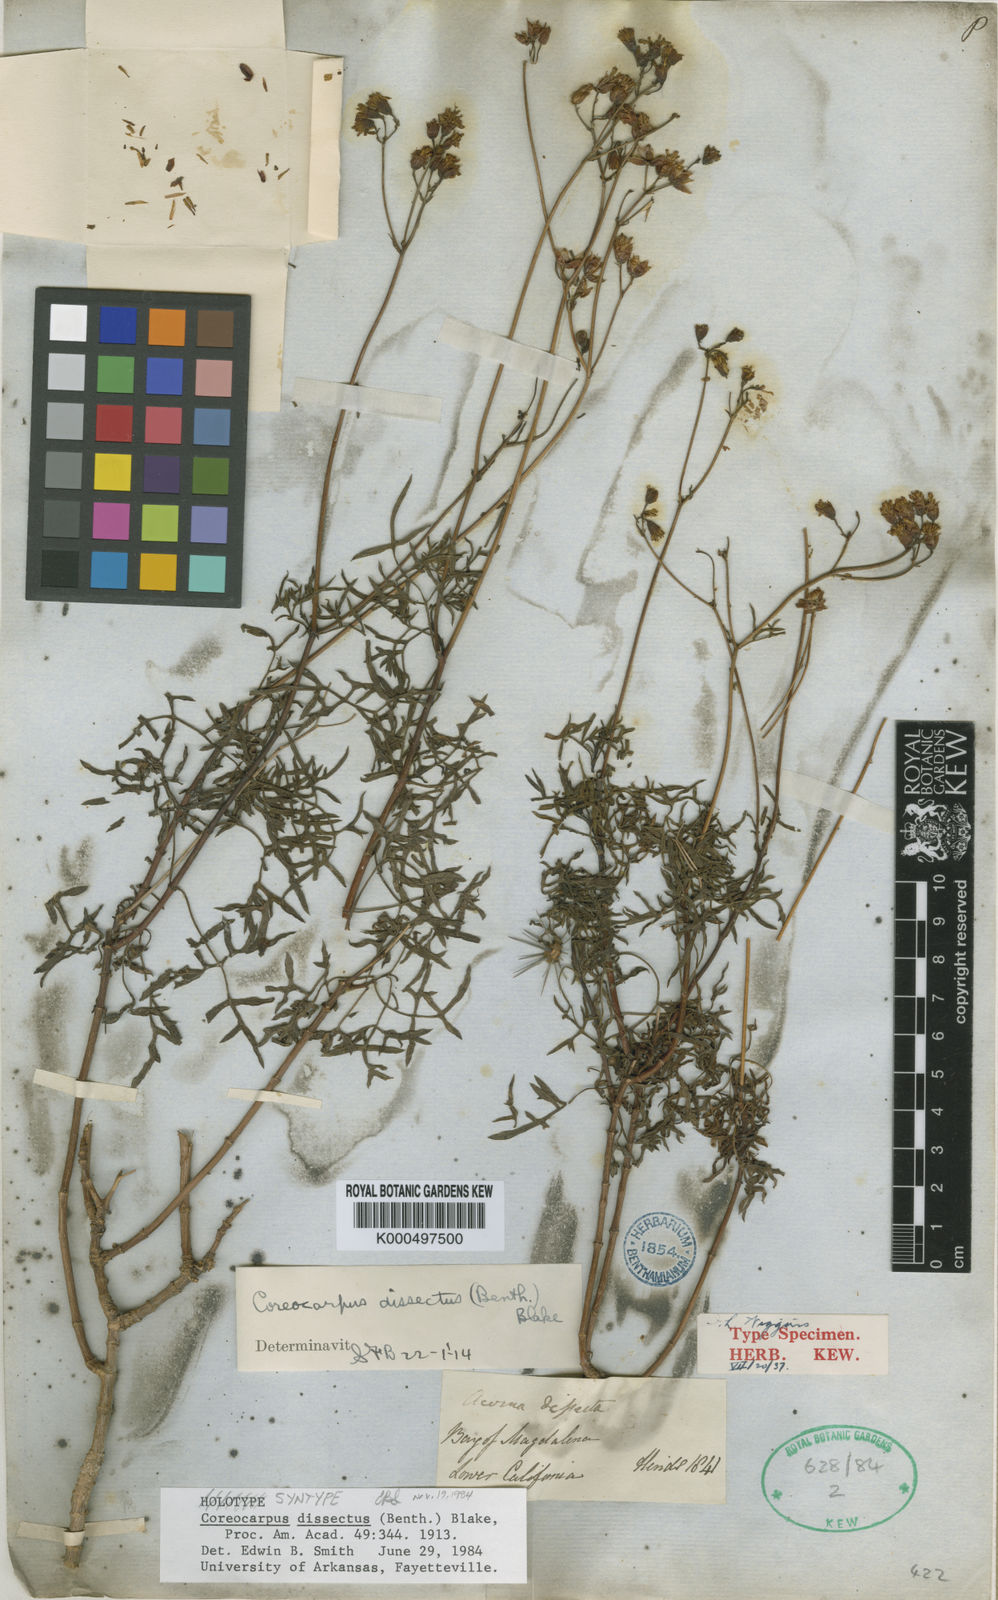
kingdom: Plantae
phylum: Tracheophyta
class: Magnoliopsida
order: Asterales
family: Asteraceae
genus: Coreocarpus
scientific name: Coreocarpus dissectus
